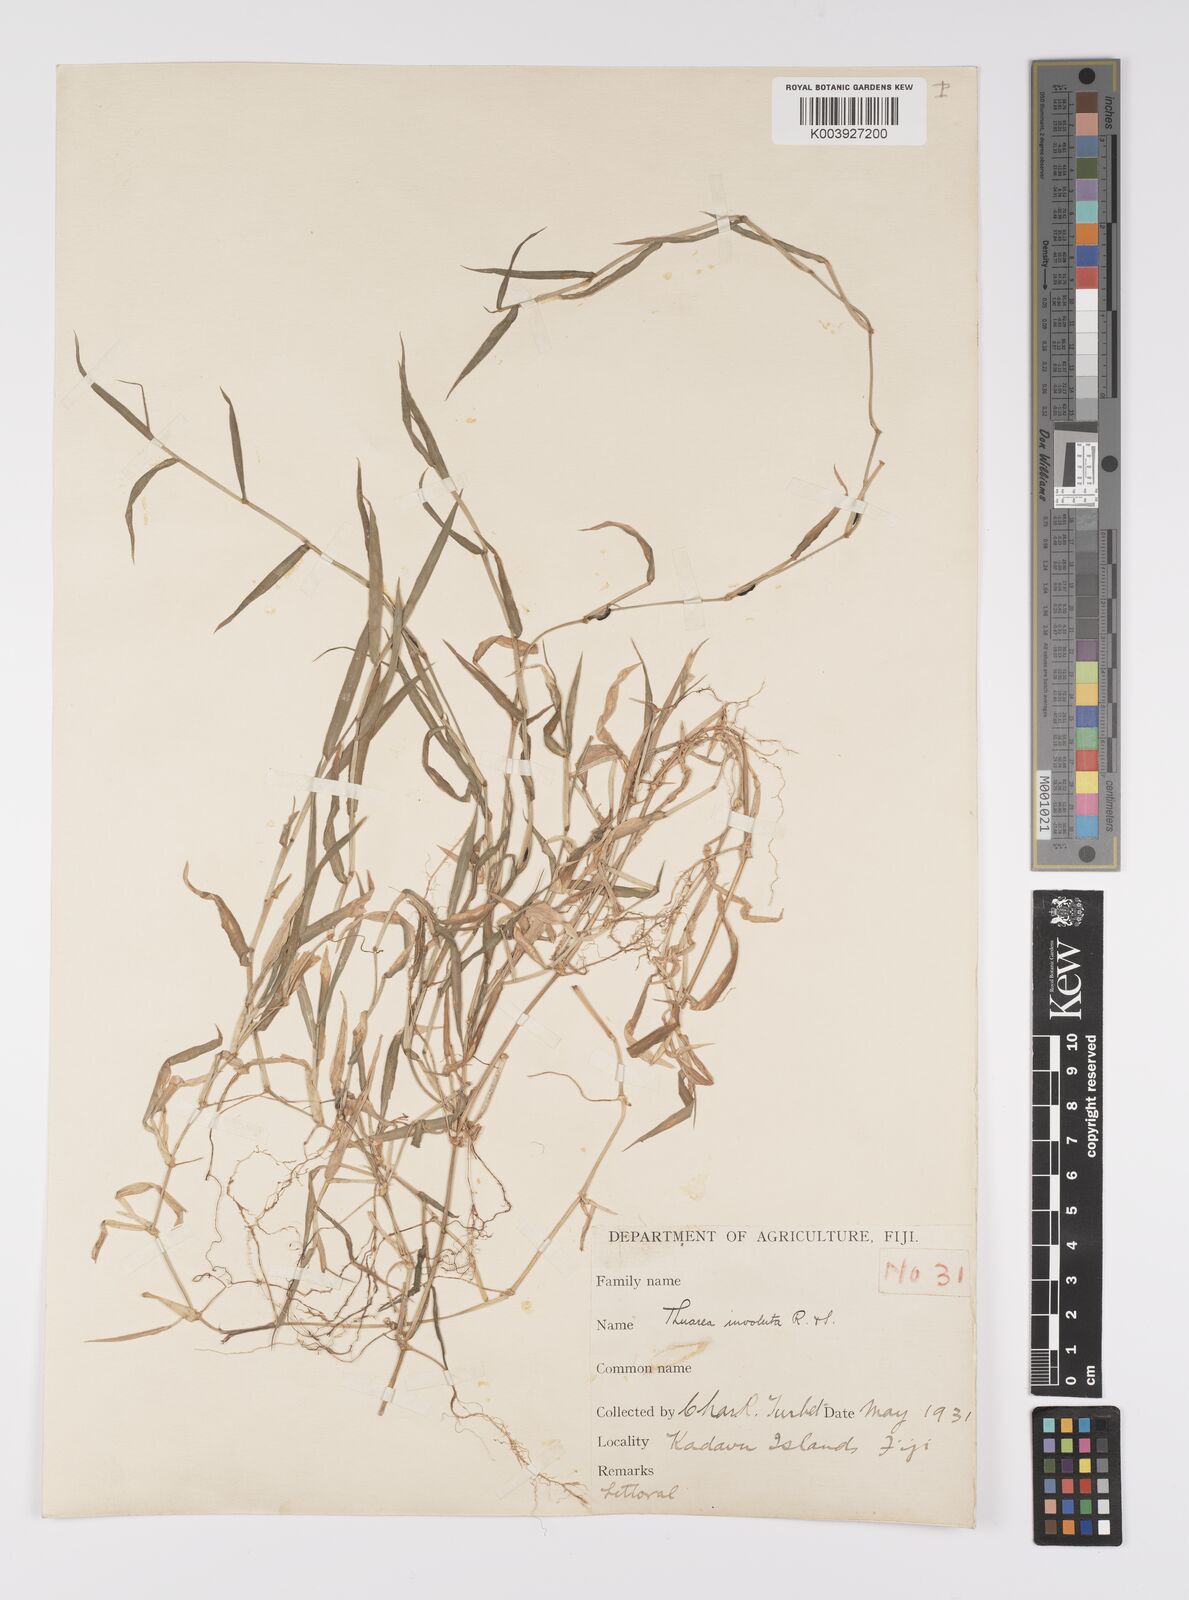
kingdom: Plantae
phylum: Tracheophyta
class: Liliopsida
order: Poales
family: Poaceae
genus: Thuarea
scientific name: Thuarea involuta
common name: Tropical beach grass
